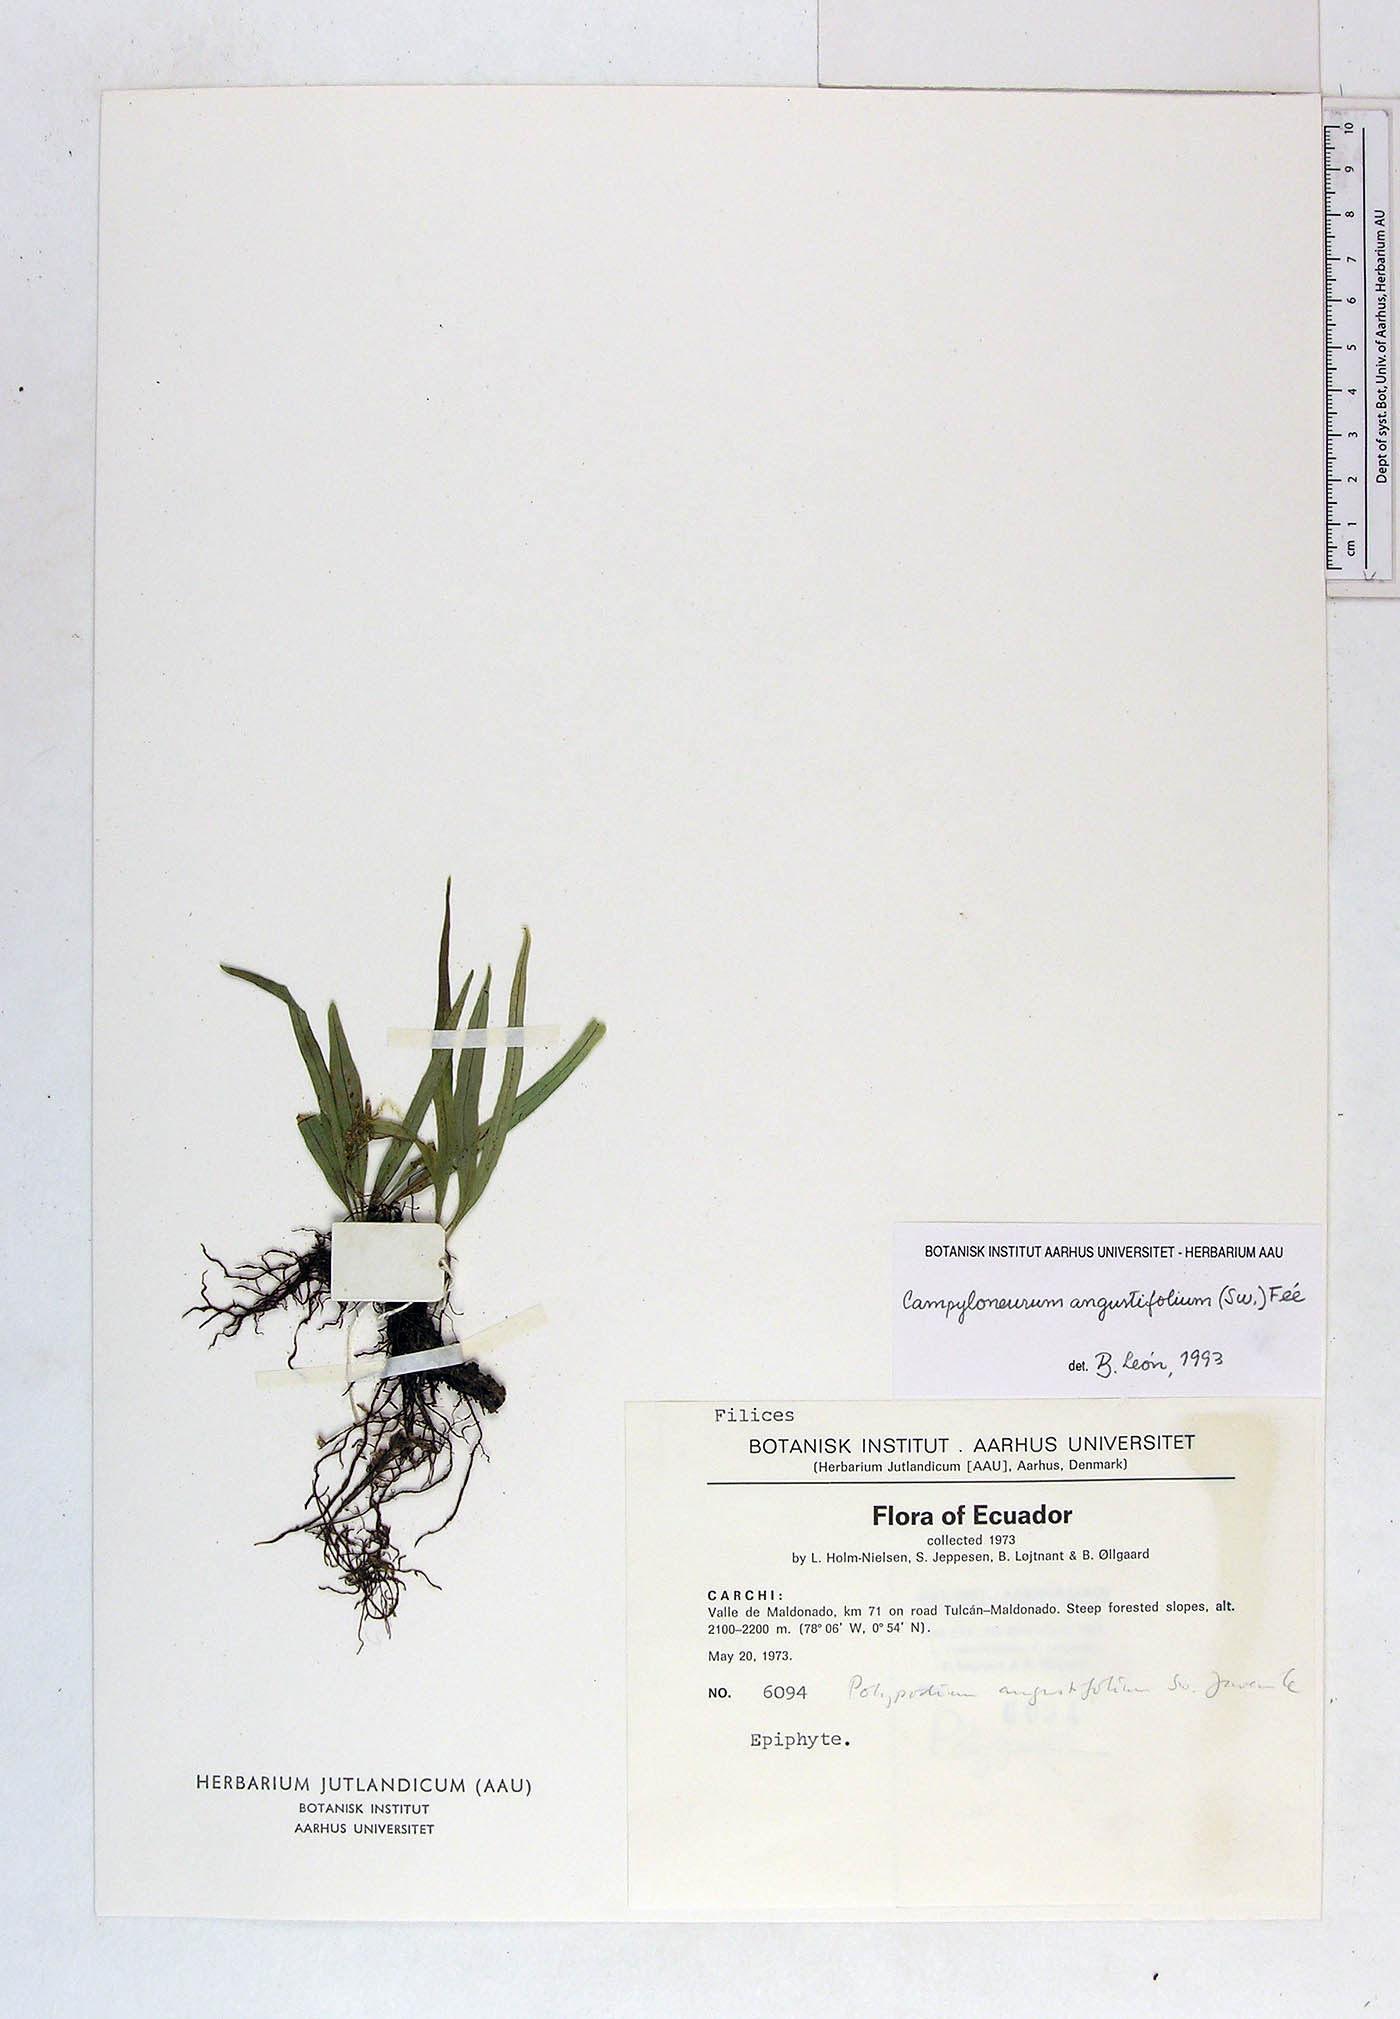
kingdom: Plantae
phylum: Tracheophyta
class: Polypodiopsida
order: Polypodiales
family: Polypodiaceae
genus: Campyloneurum
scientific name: Campyloneurum angustifolium
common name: Narrow-leaf strap fern
